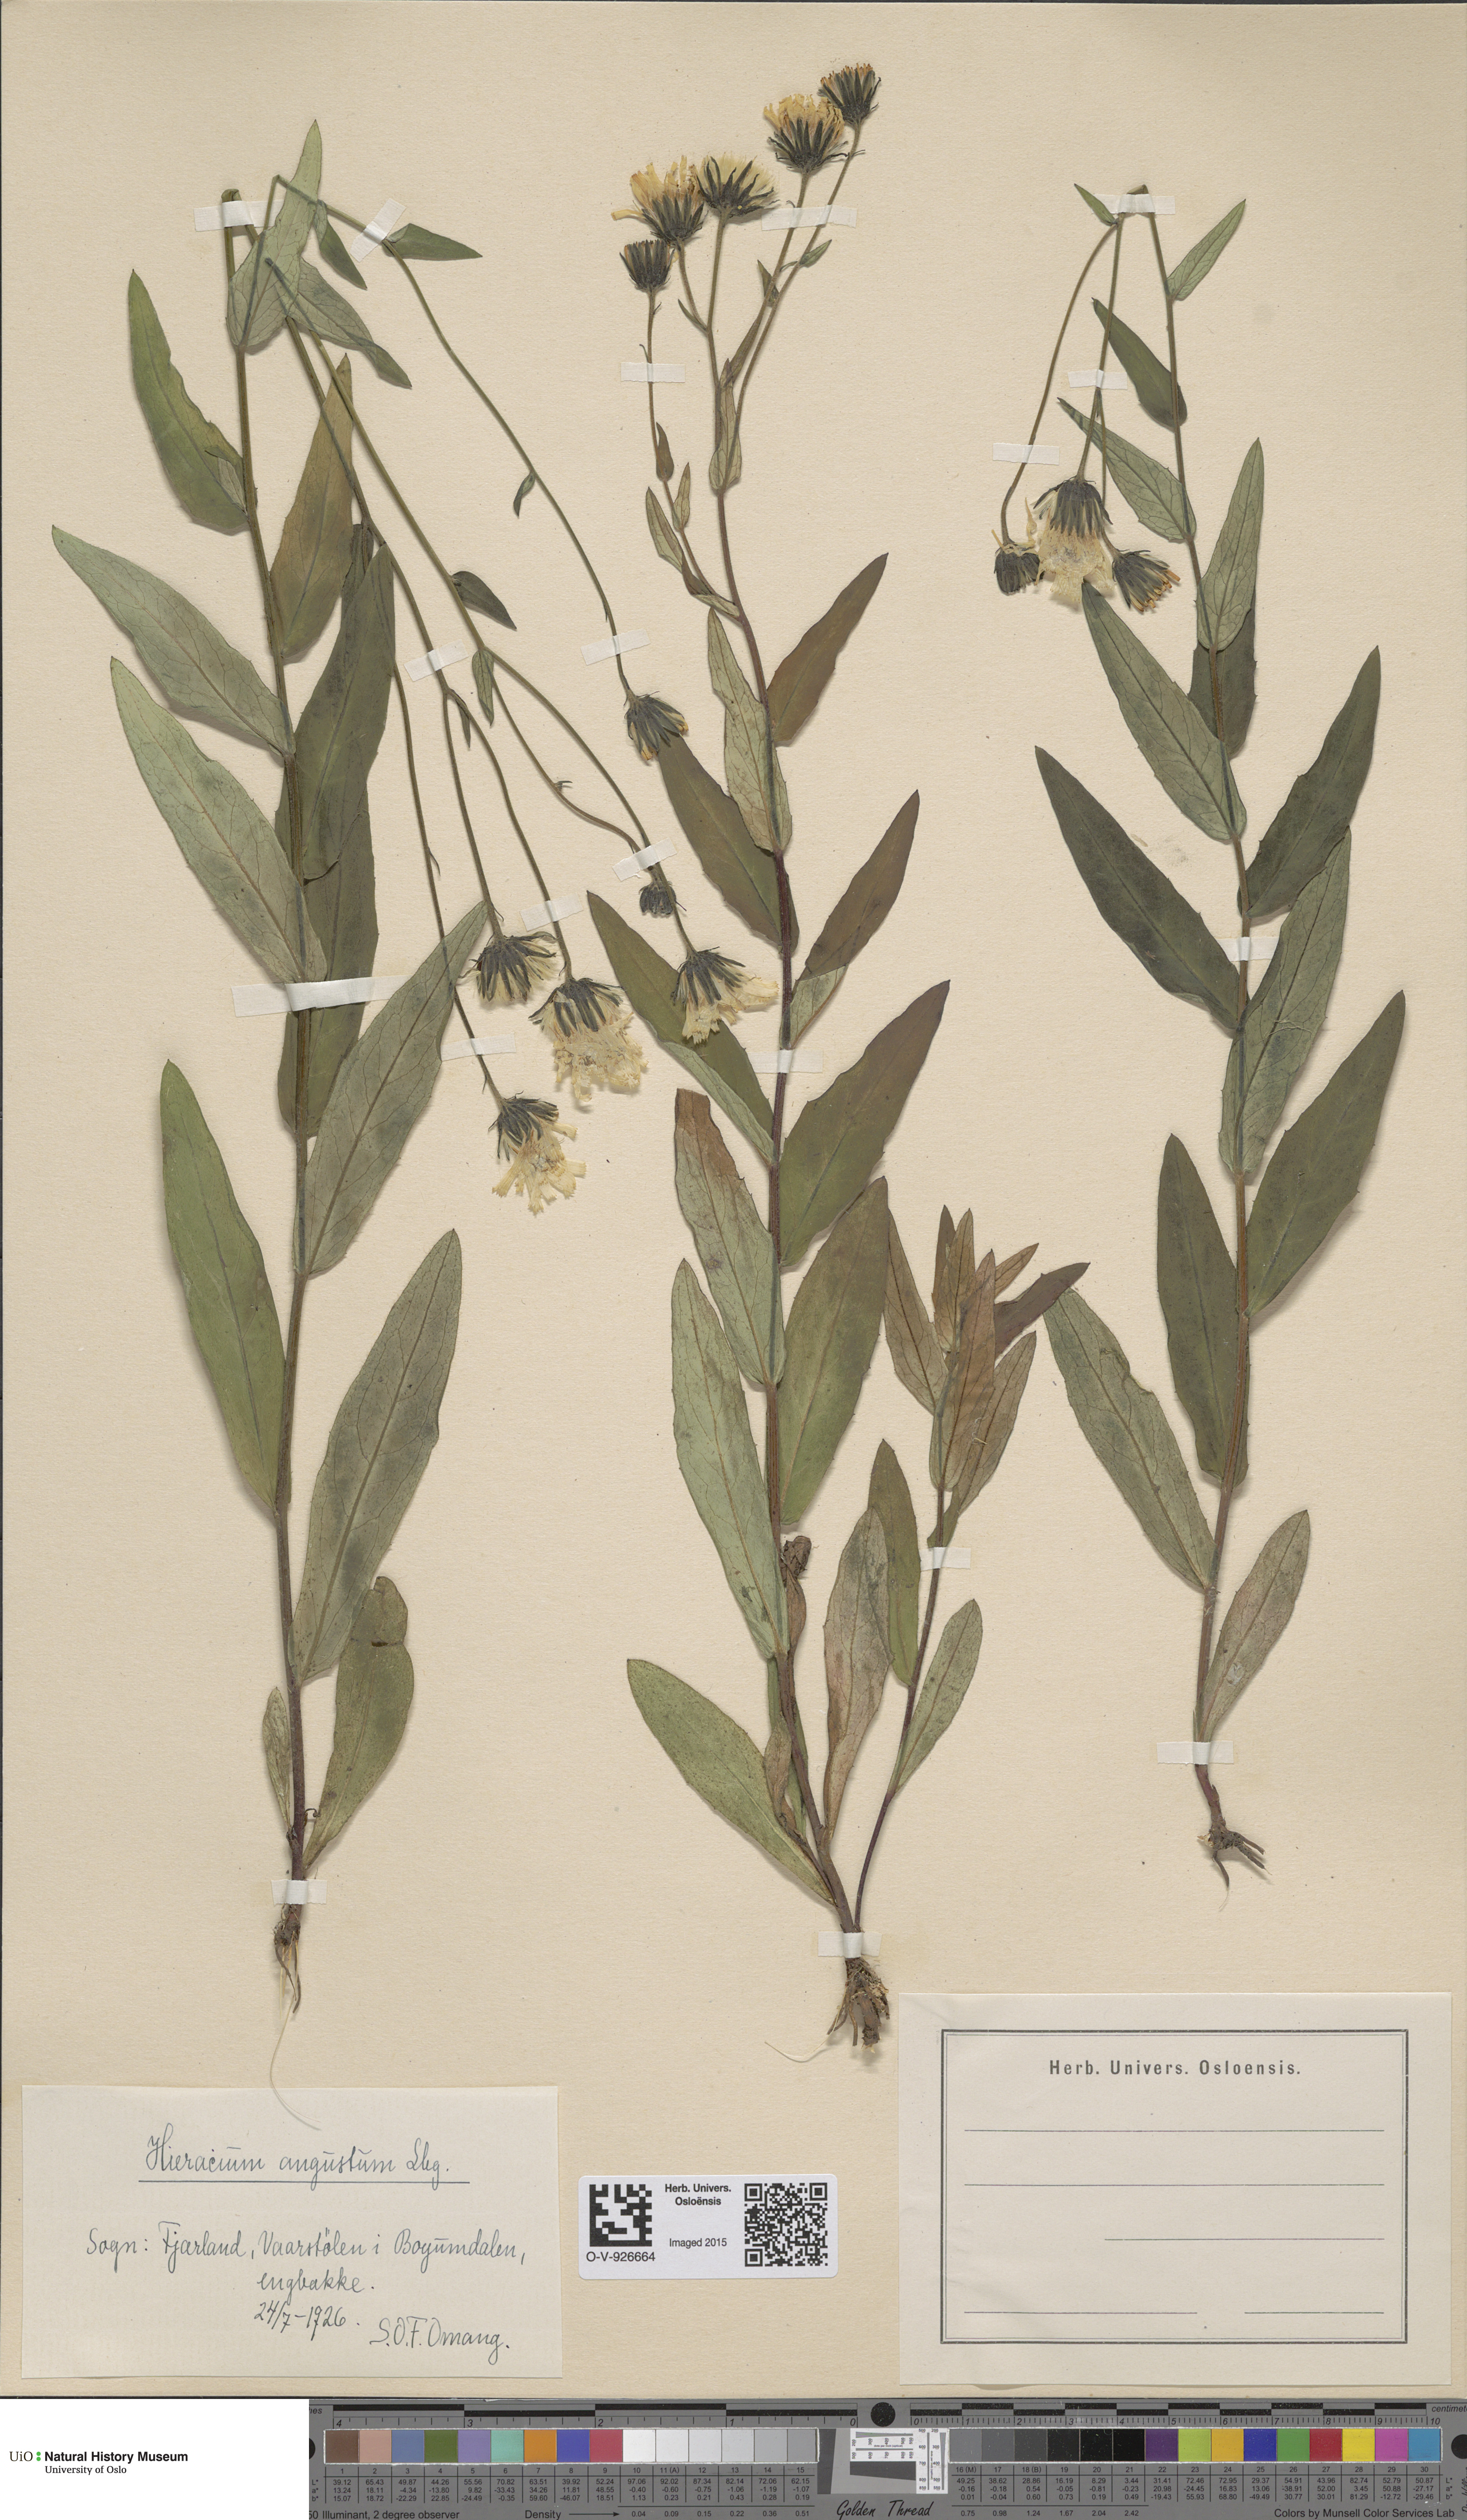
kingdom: Plantae
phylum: Tracheophyta
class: Magnoliopsida
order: Asterales
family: Asteraceae
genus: Hieracium
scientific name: Hieracium angustum
